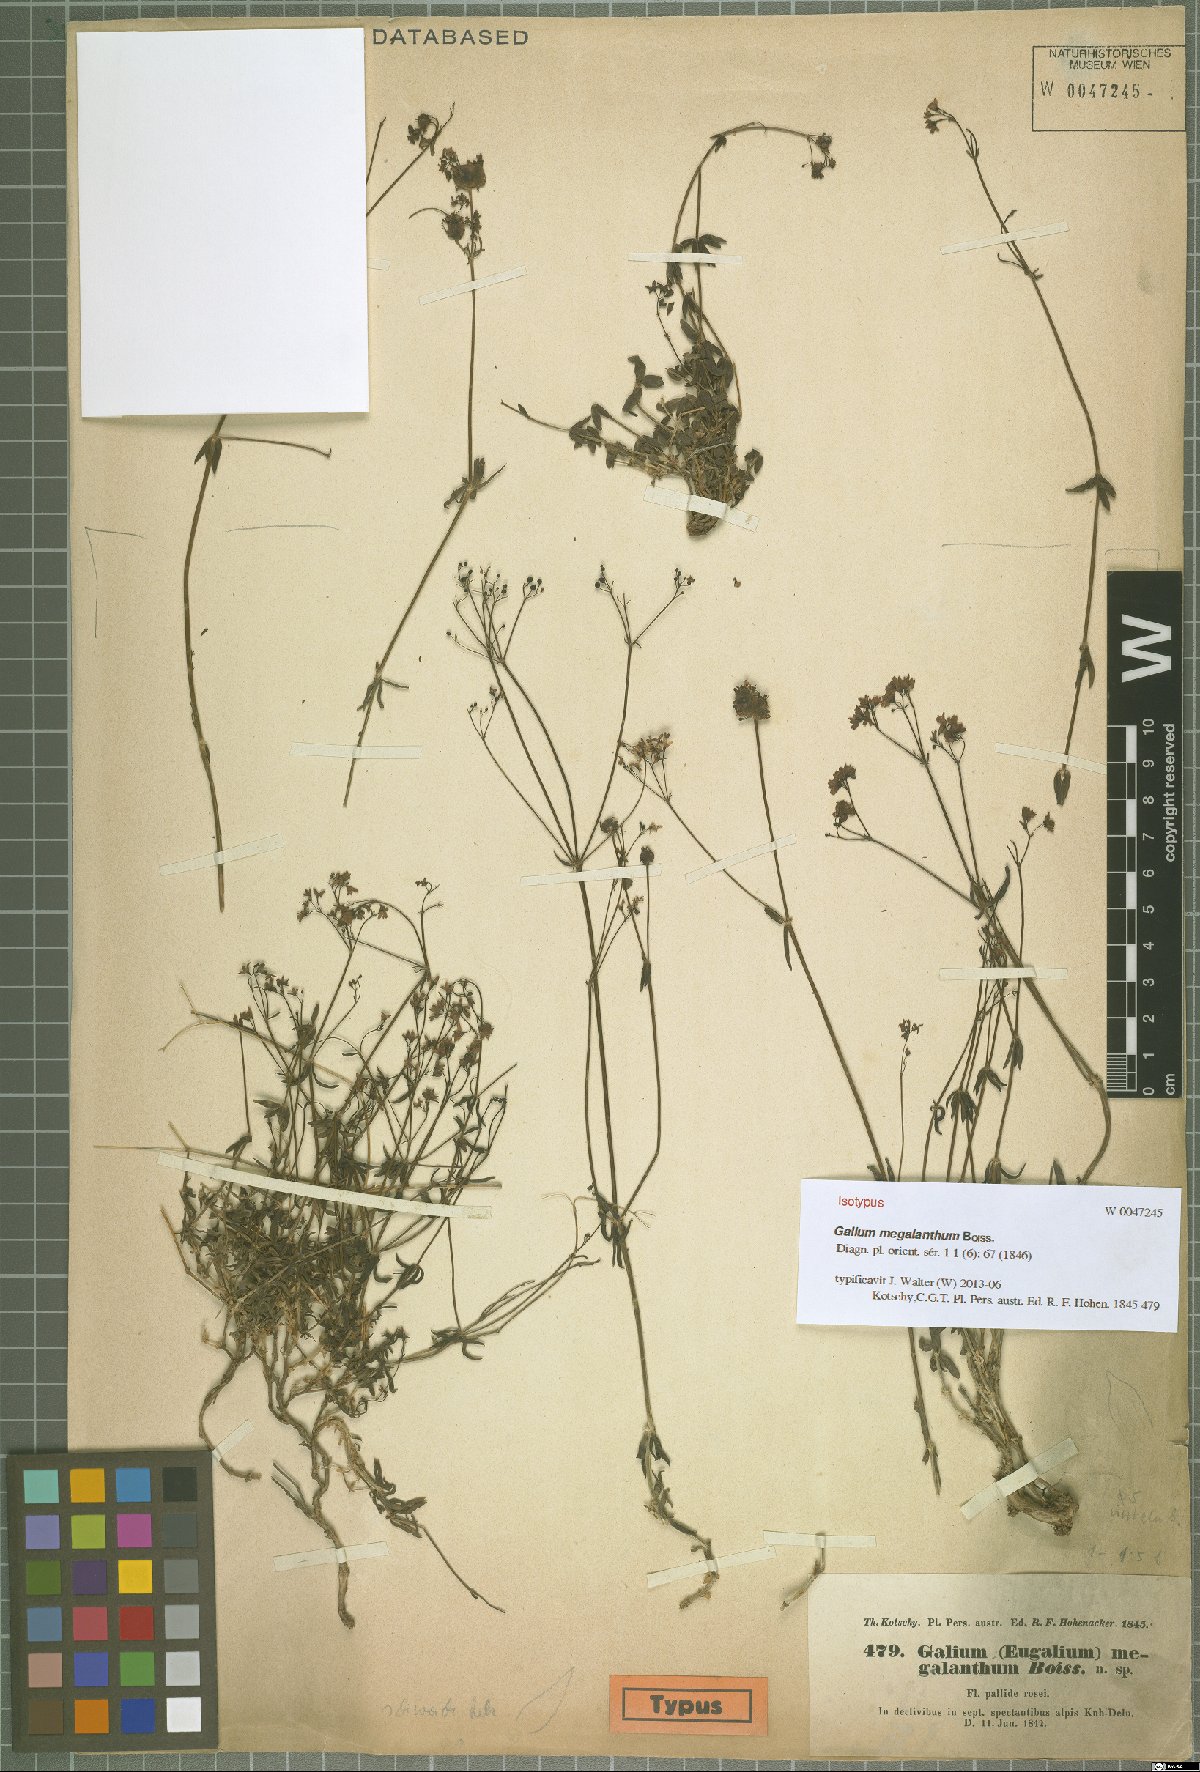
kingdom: Plantae
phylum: Tracheophyta
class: Magnoliopsida
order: Gentianales
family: Rubiaceae
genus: Galium
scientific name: Galium megalanthum
